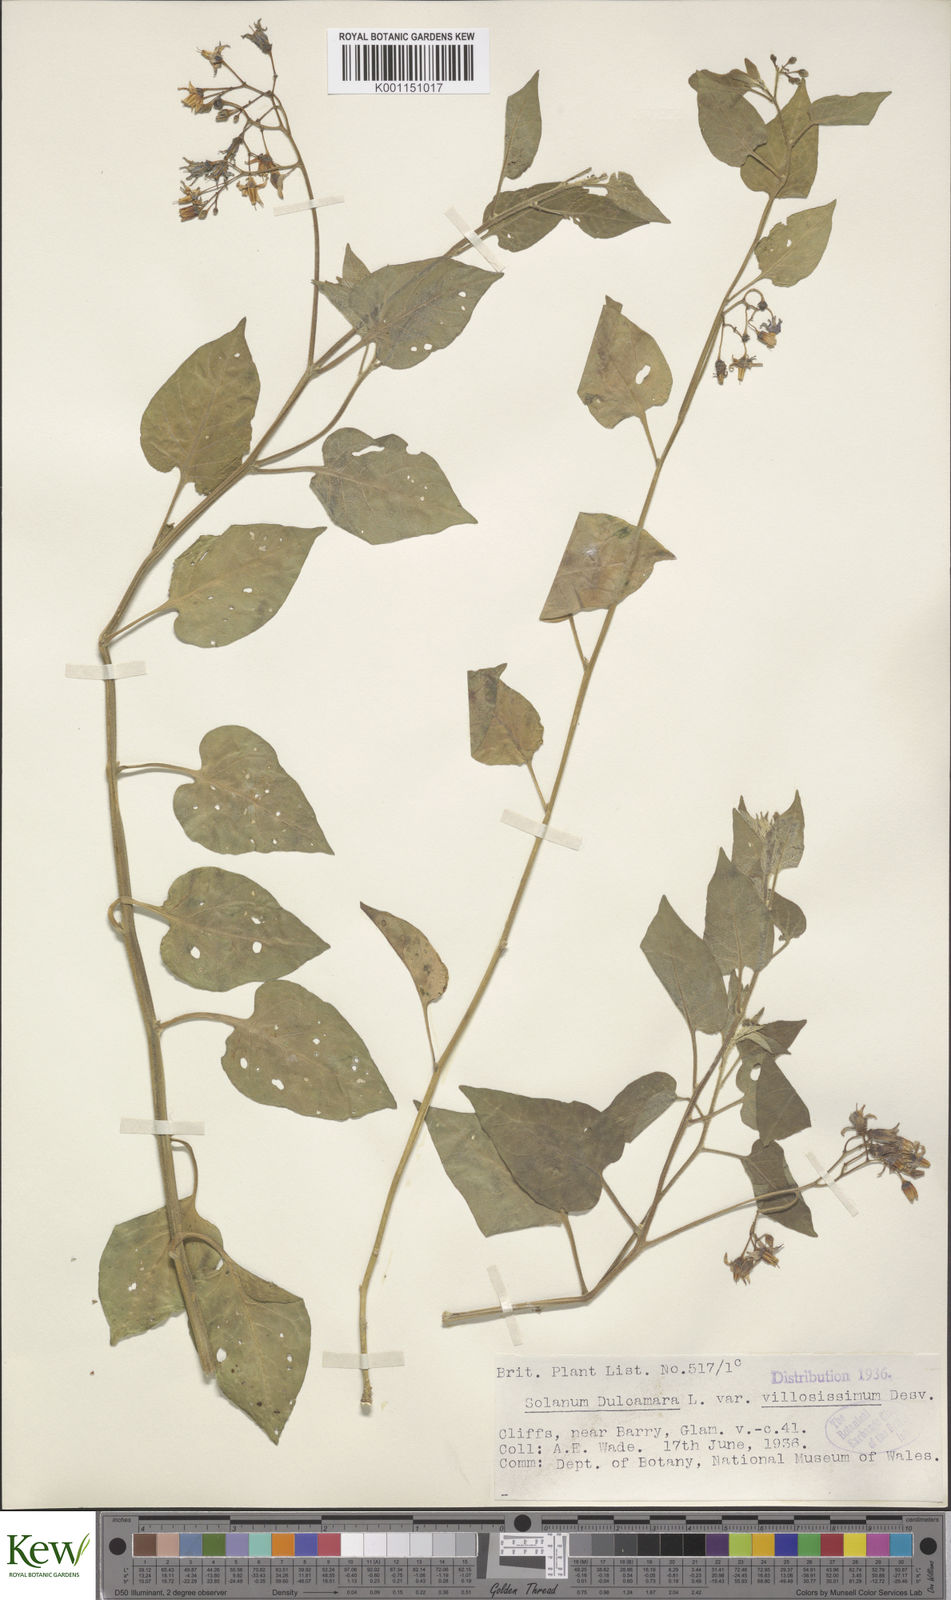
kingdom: Plantae
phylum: Tracheophyta
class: Magnoliopsida
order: Solanales
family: Solanaceae
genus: Solanum
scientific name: Solanum dulcamara
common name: Climbing nightshade
